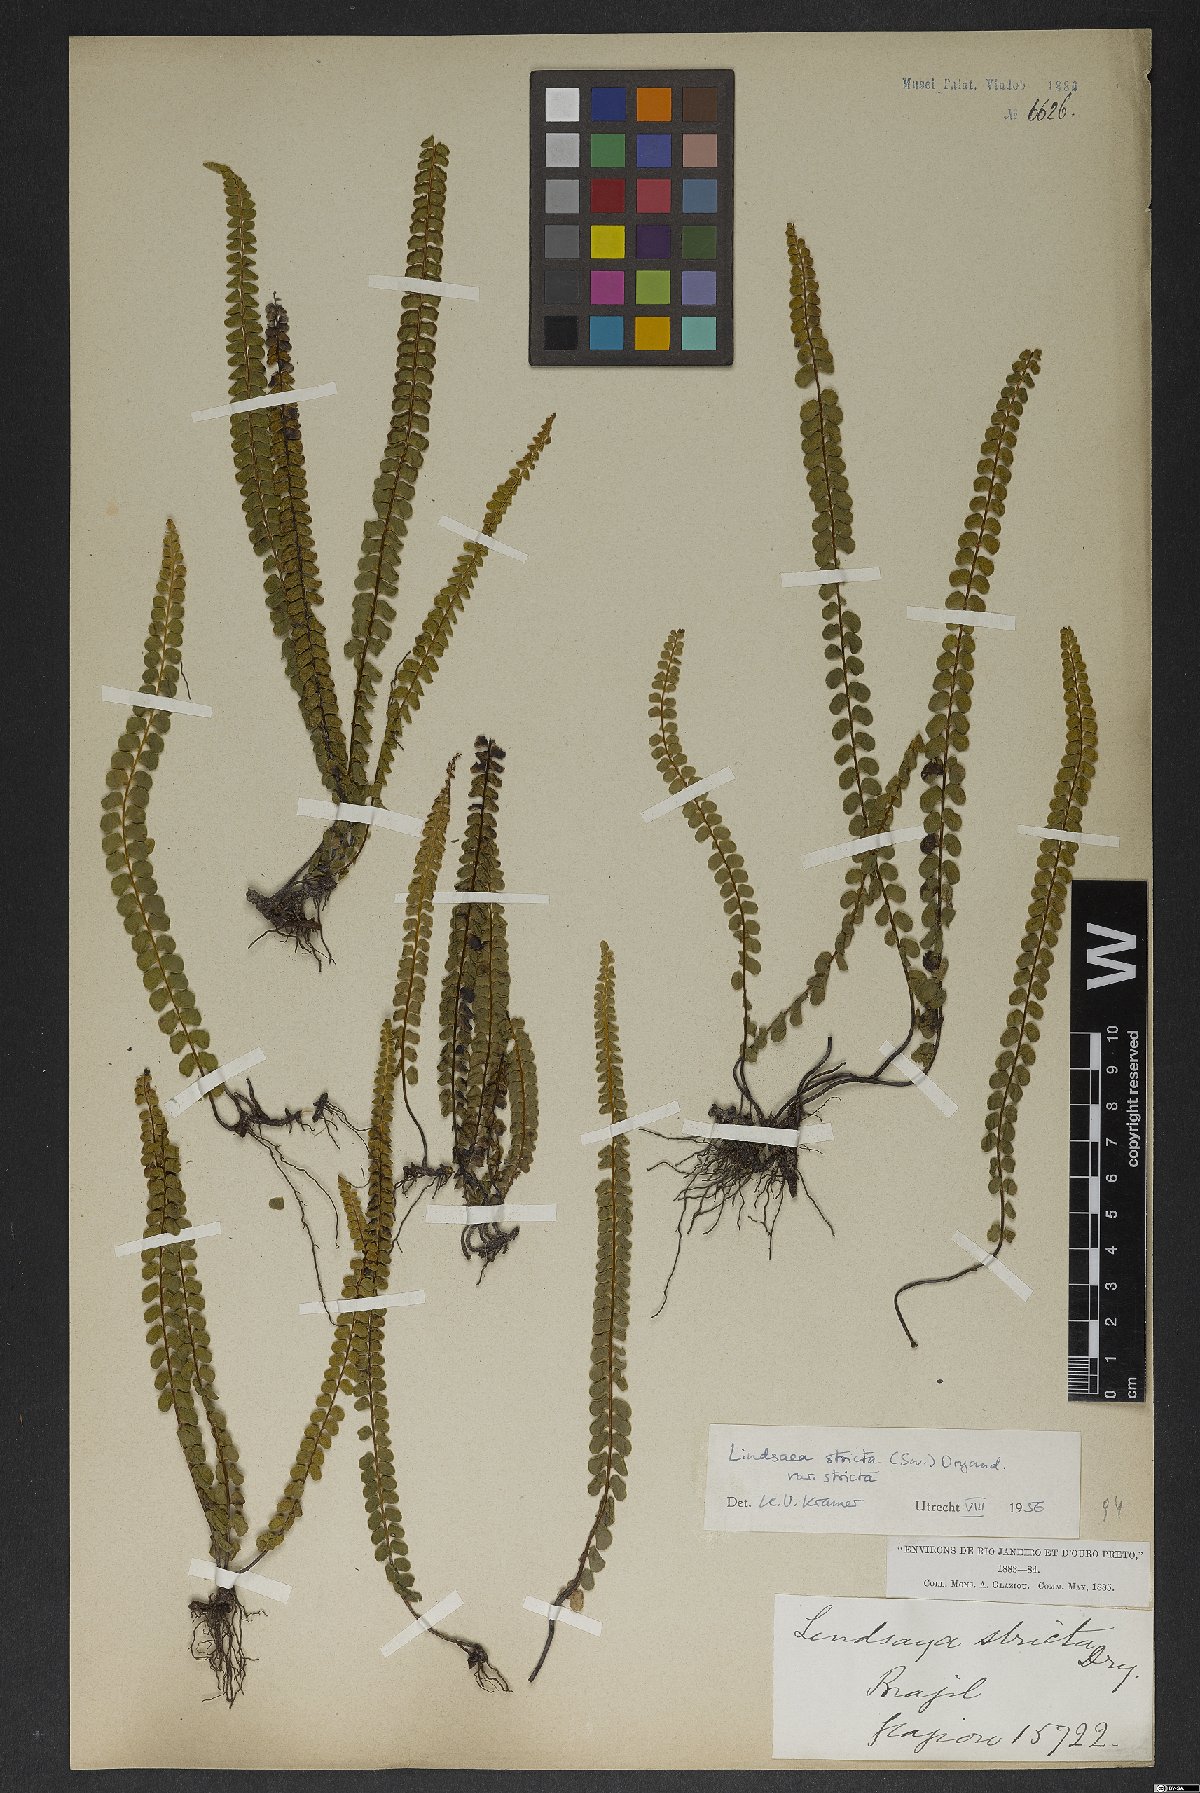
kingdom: Plantae
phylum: Tracheophyta
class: Polypodiopsida
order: Polypodiales
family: Lindsaeaceae
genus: Lindsaea
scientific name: Lindsaea stricta
